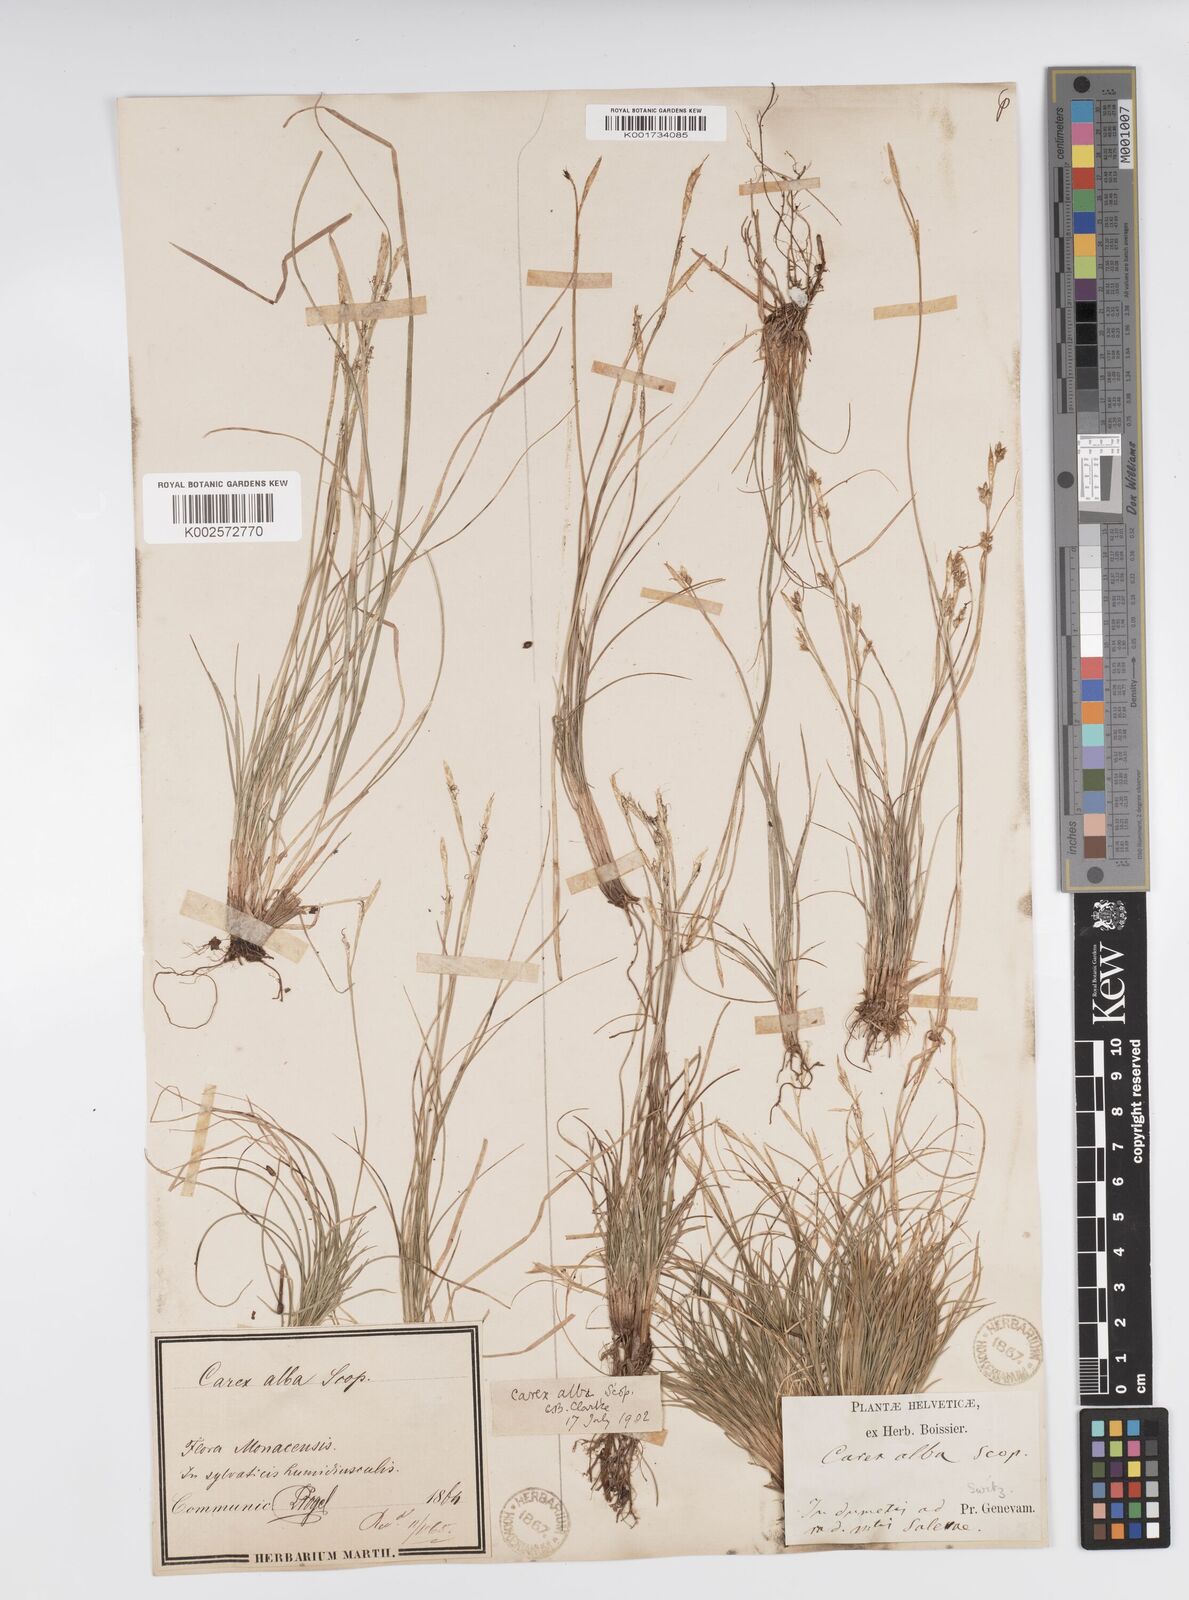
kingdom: Plantae
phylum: Tracheophyta
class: Liliopsida
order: Poales
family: Cyperaceae
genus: Carex
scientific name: Carex alba
